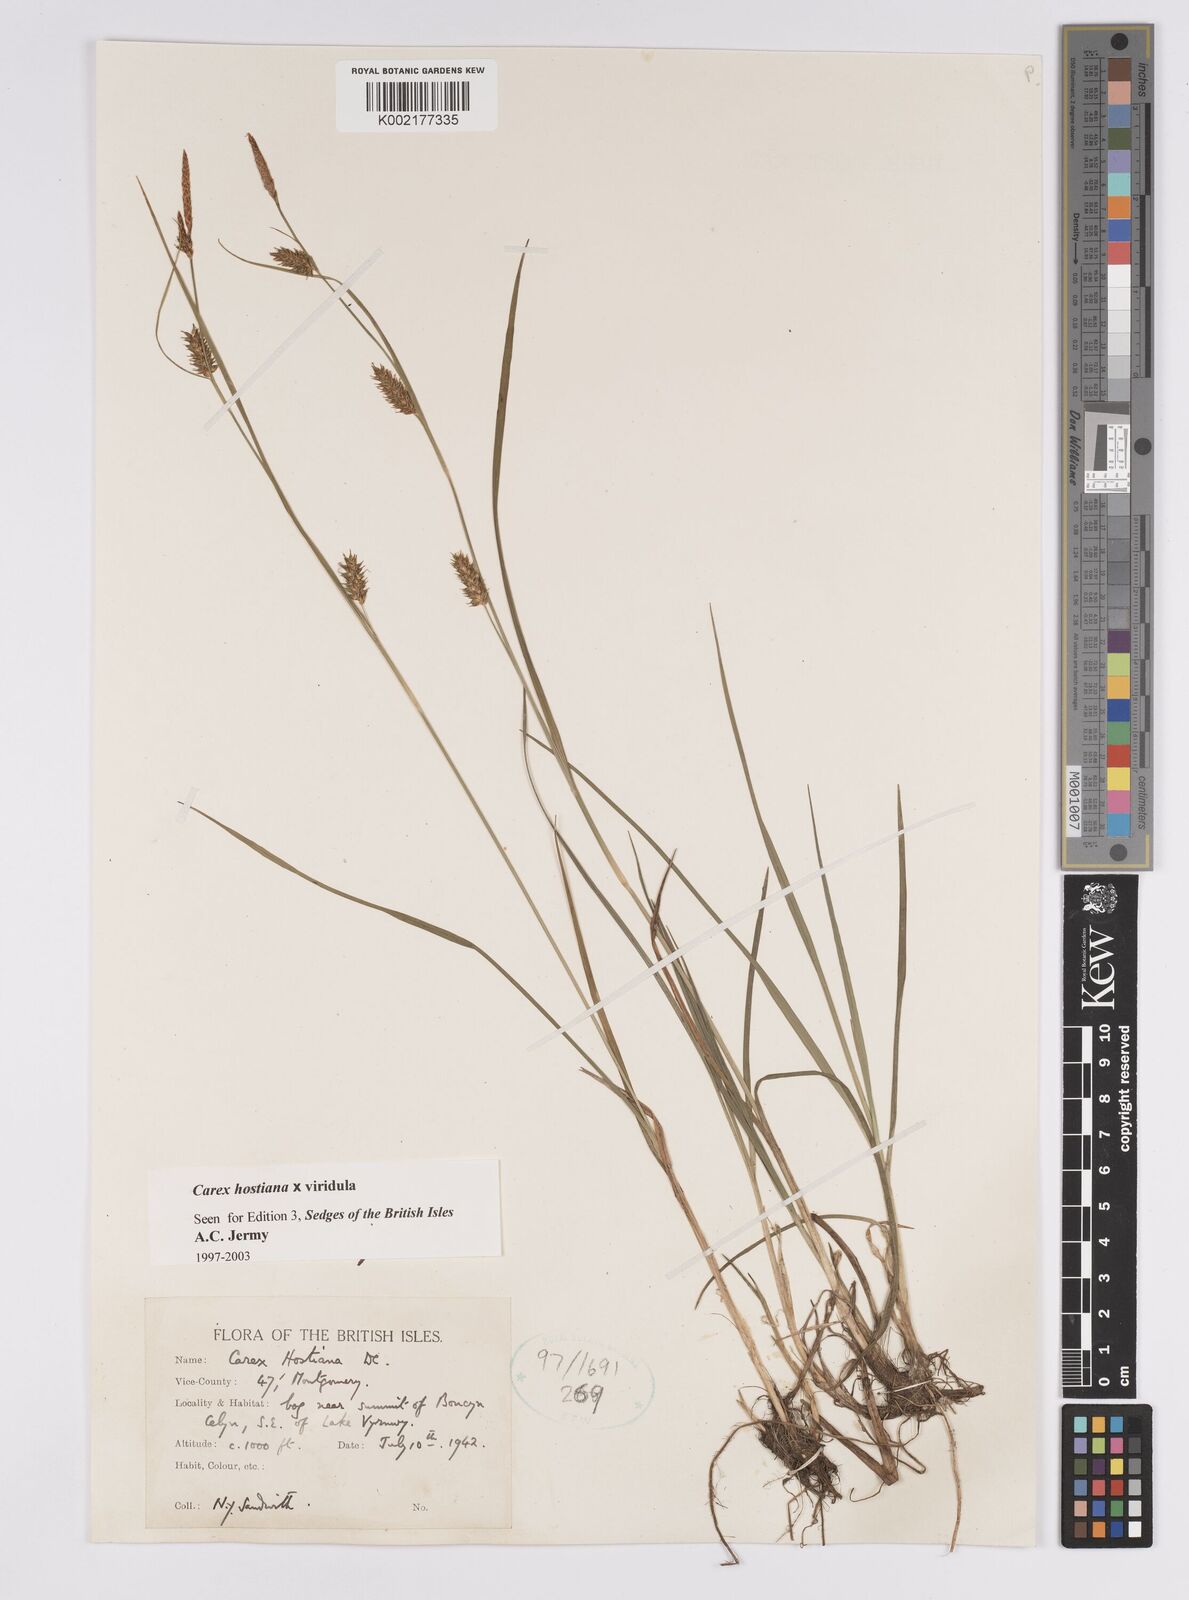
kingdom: Plantae
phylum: Tracheophyta
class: Liliopsida
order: Poales
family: Cyperaceae
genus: Carex
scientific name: Carex hostiana
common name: Tawny sedge
